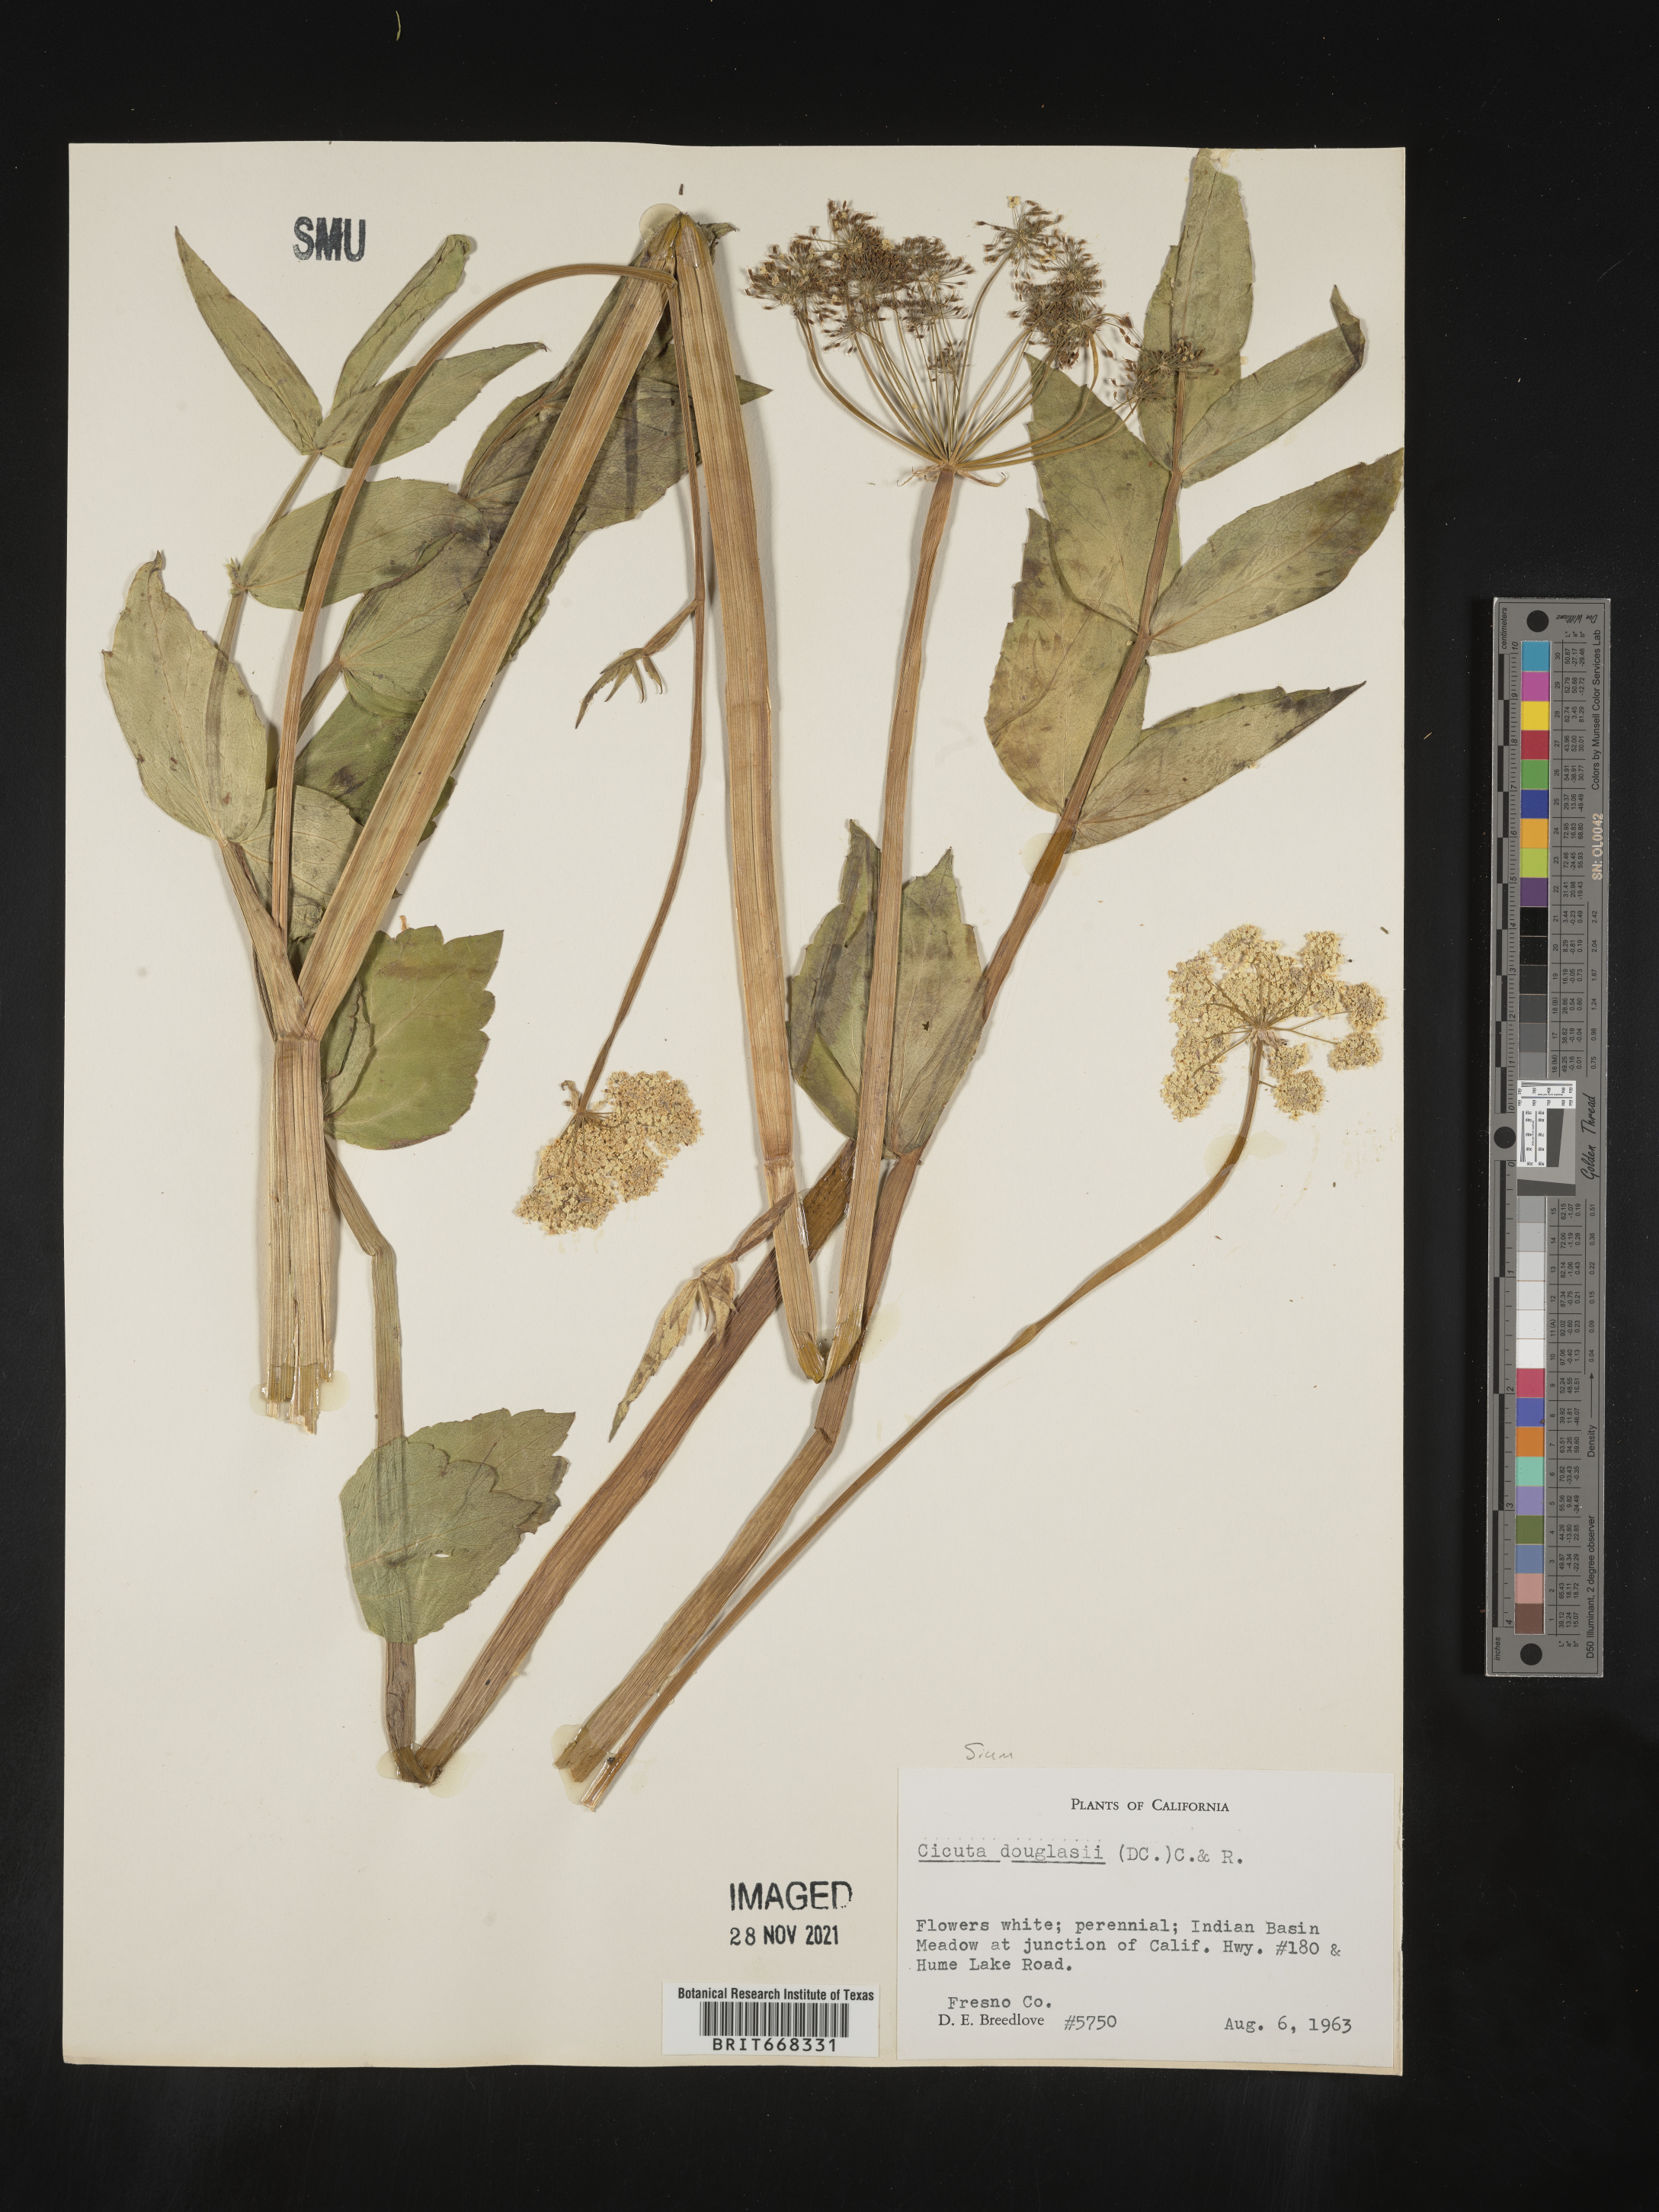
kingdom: Plantae
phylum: Tracheophyta
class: Magnoliopsida
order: Apiales
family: Apiaceae
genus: Cicuta
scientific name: Cicuta
